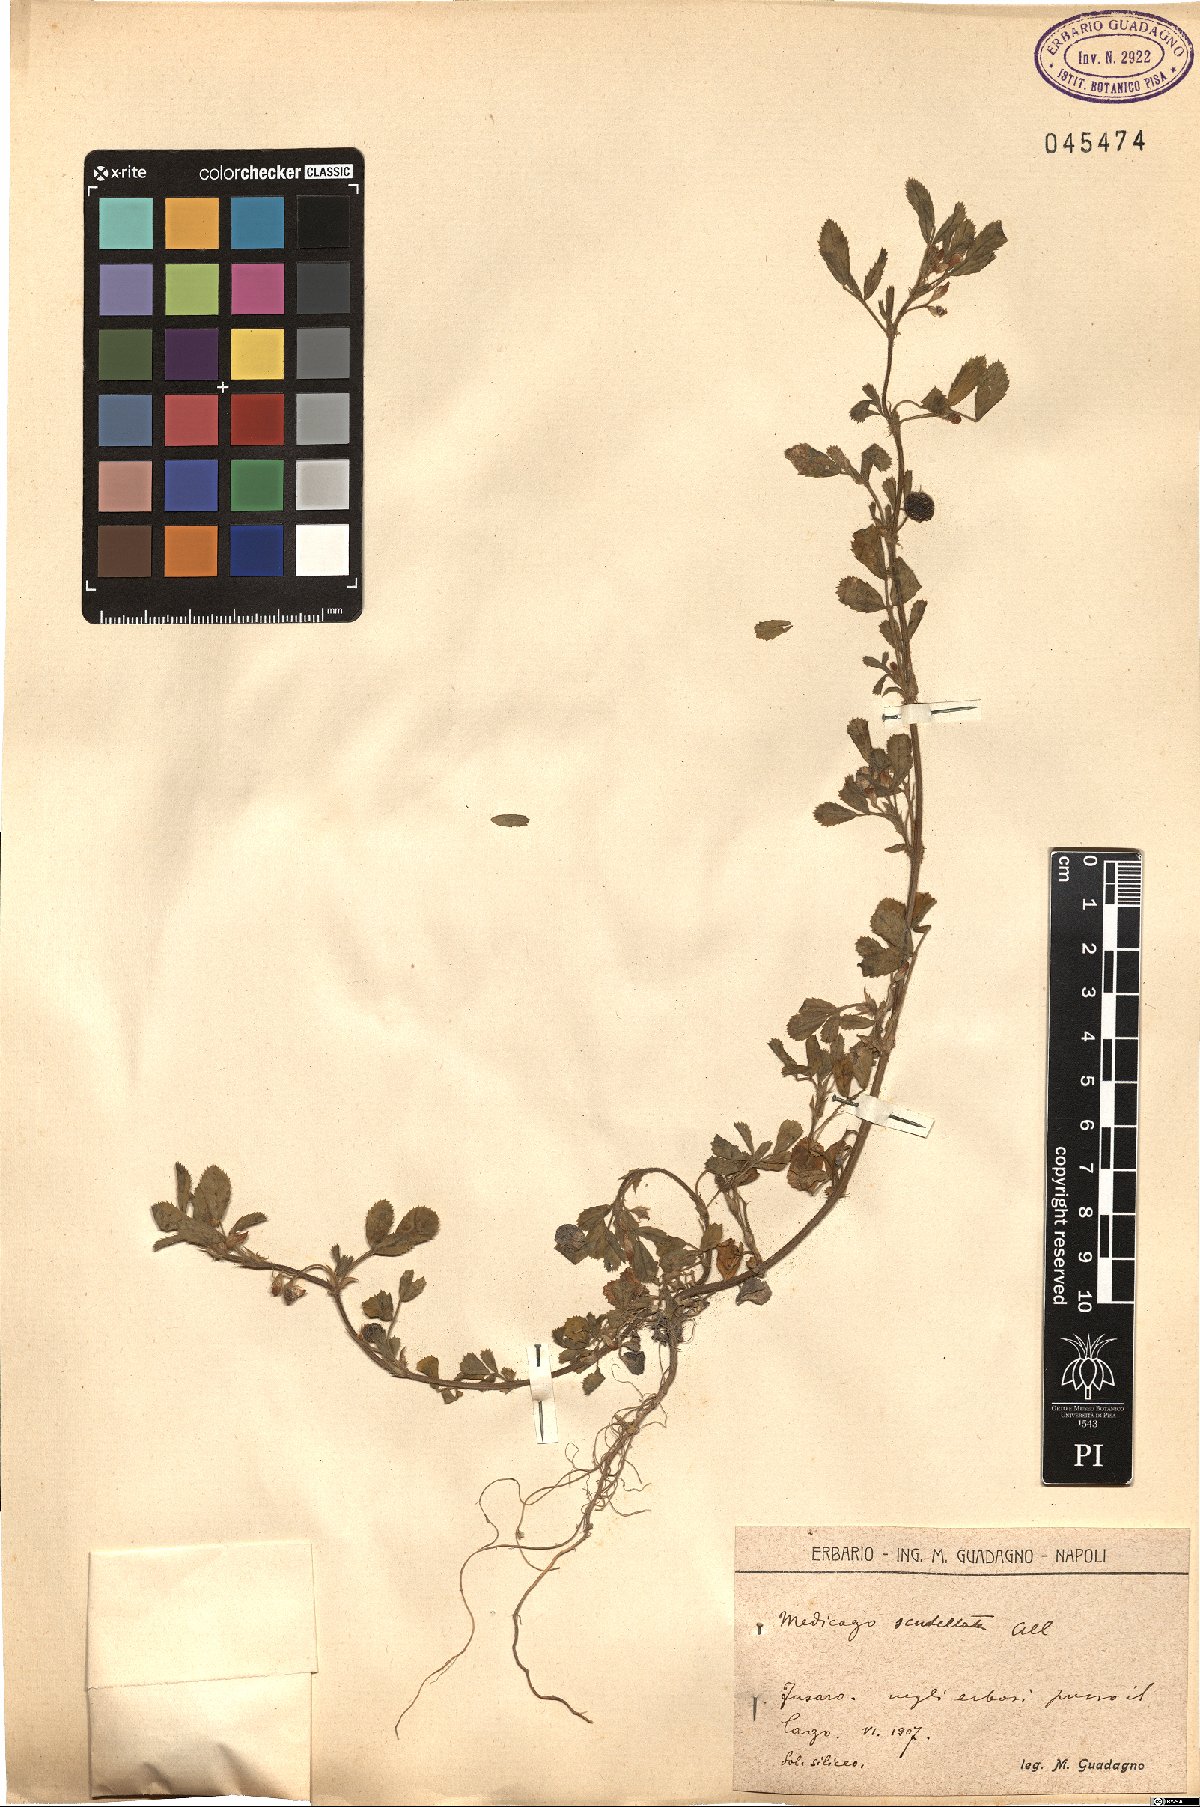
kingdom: Plantae
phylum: Tracheophyta
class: Magnoliopsida
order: Fabales
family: Fabaceae
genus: Medicago
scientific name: Medicago scutellata
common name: Snail medick
